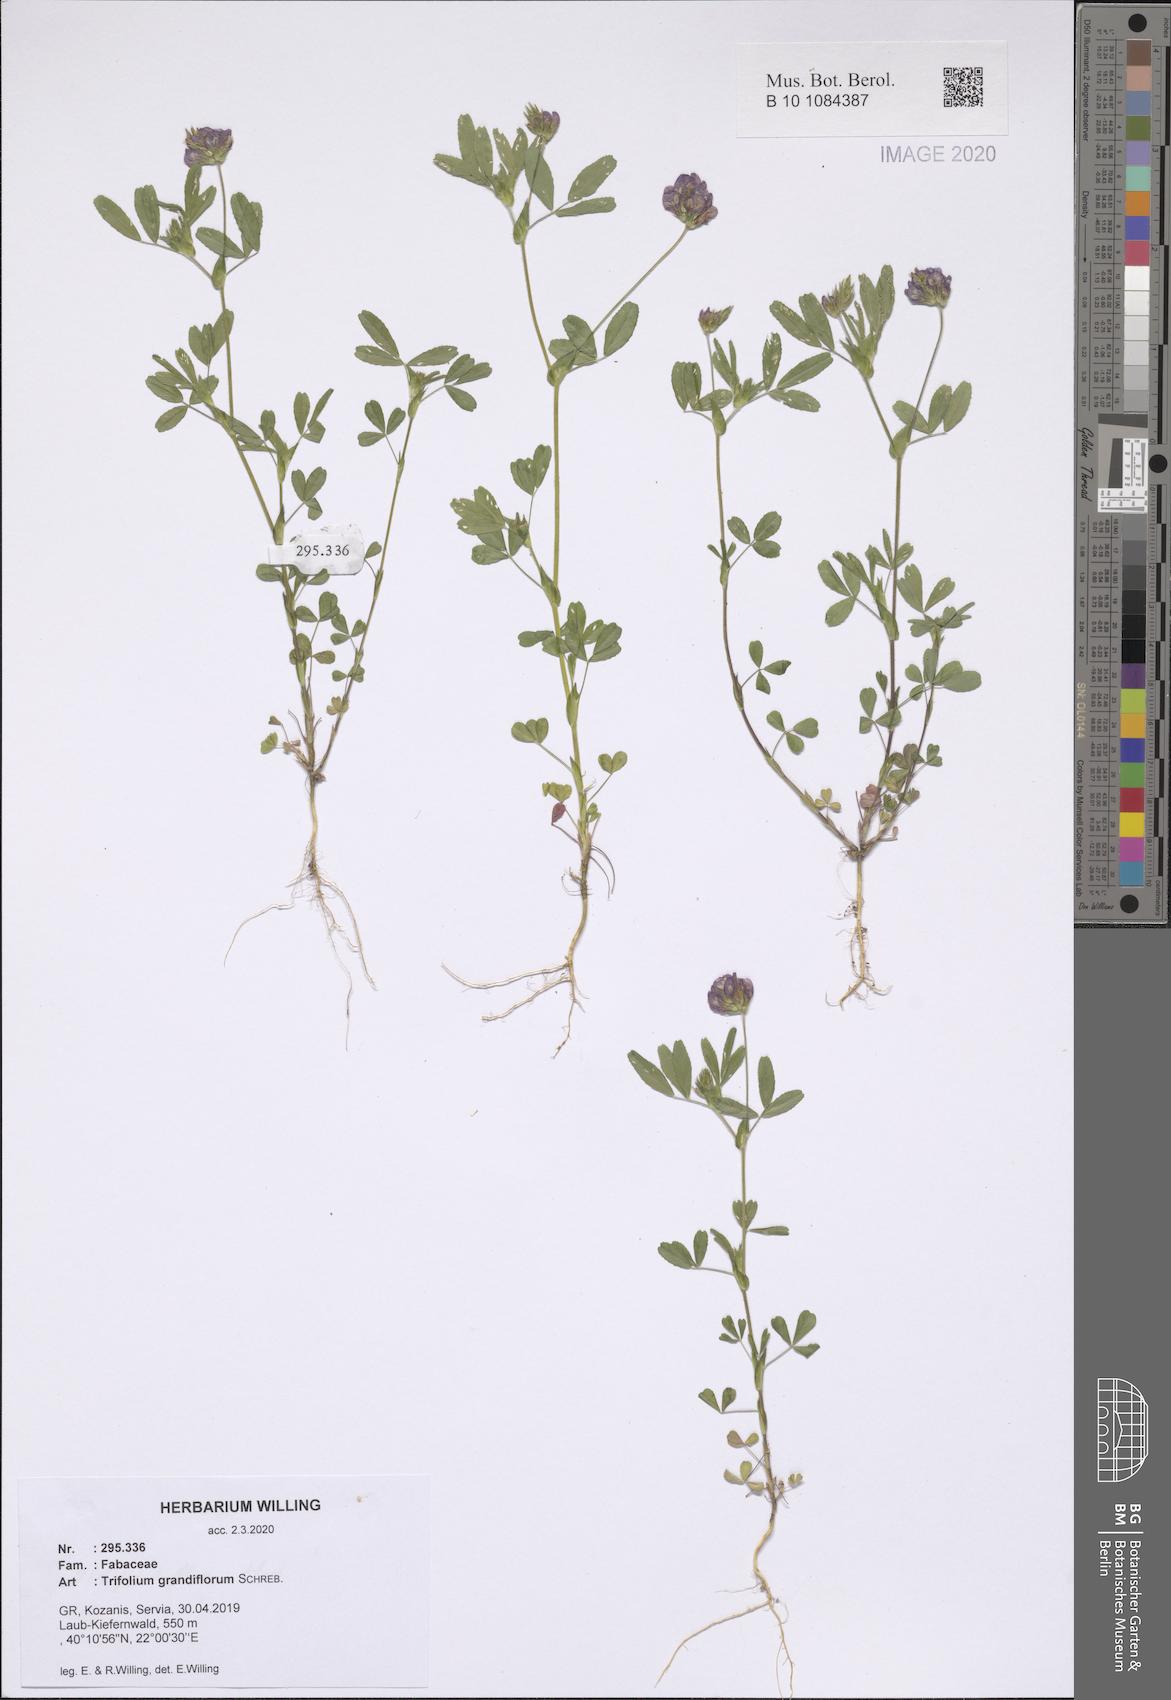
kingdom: Plantae
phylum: Tracheophyta
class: Magnoliopsida
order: Fabales
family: Fabaceae
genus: Trifolium
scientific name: Trifolium grandiflorum
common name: Large-flower hop clover
